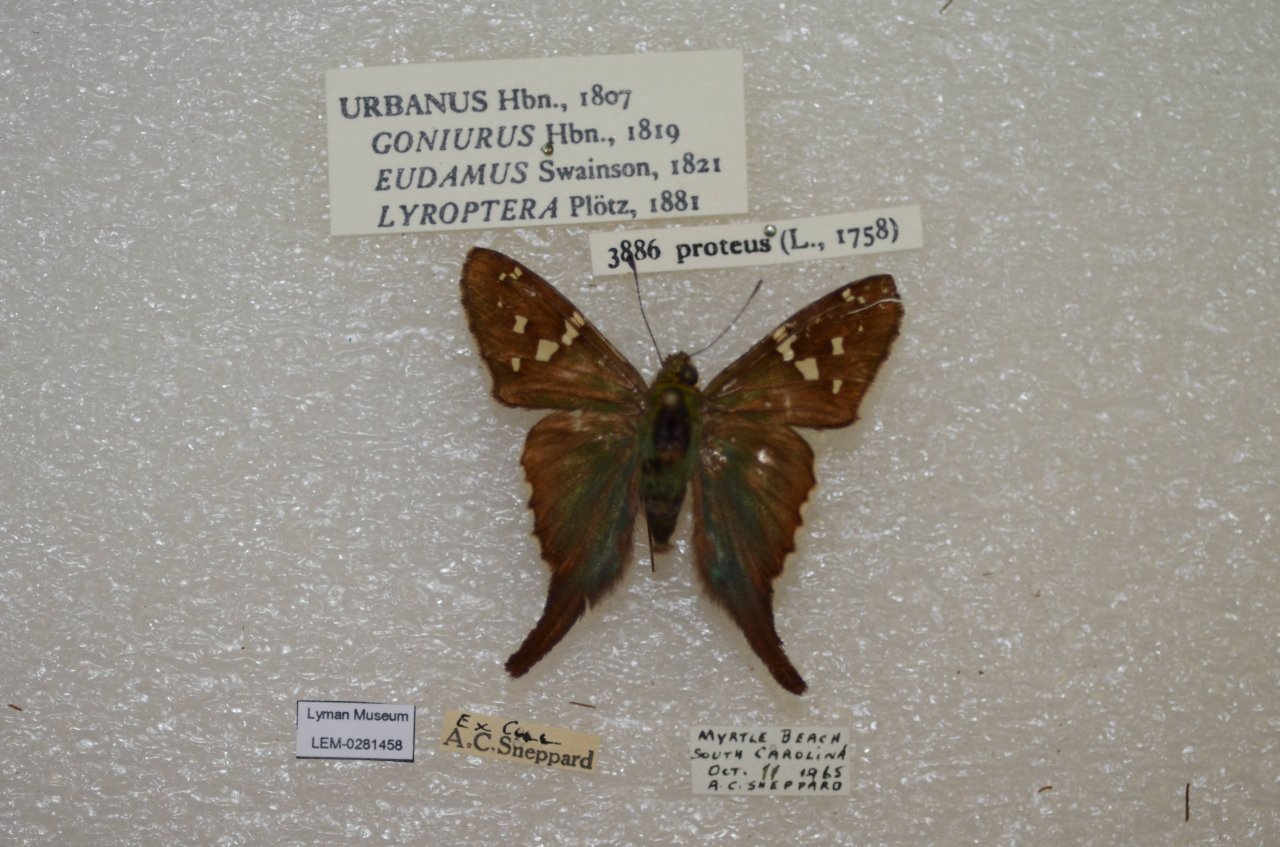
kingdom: Animalia
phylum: Arthropoda
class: Insecta
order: Lepidoptera
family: Hesperiidae
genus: Urbanus
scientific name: Urbanus proteus
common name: Long-tailed Skipper
